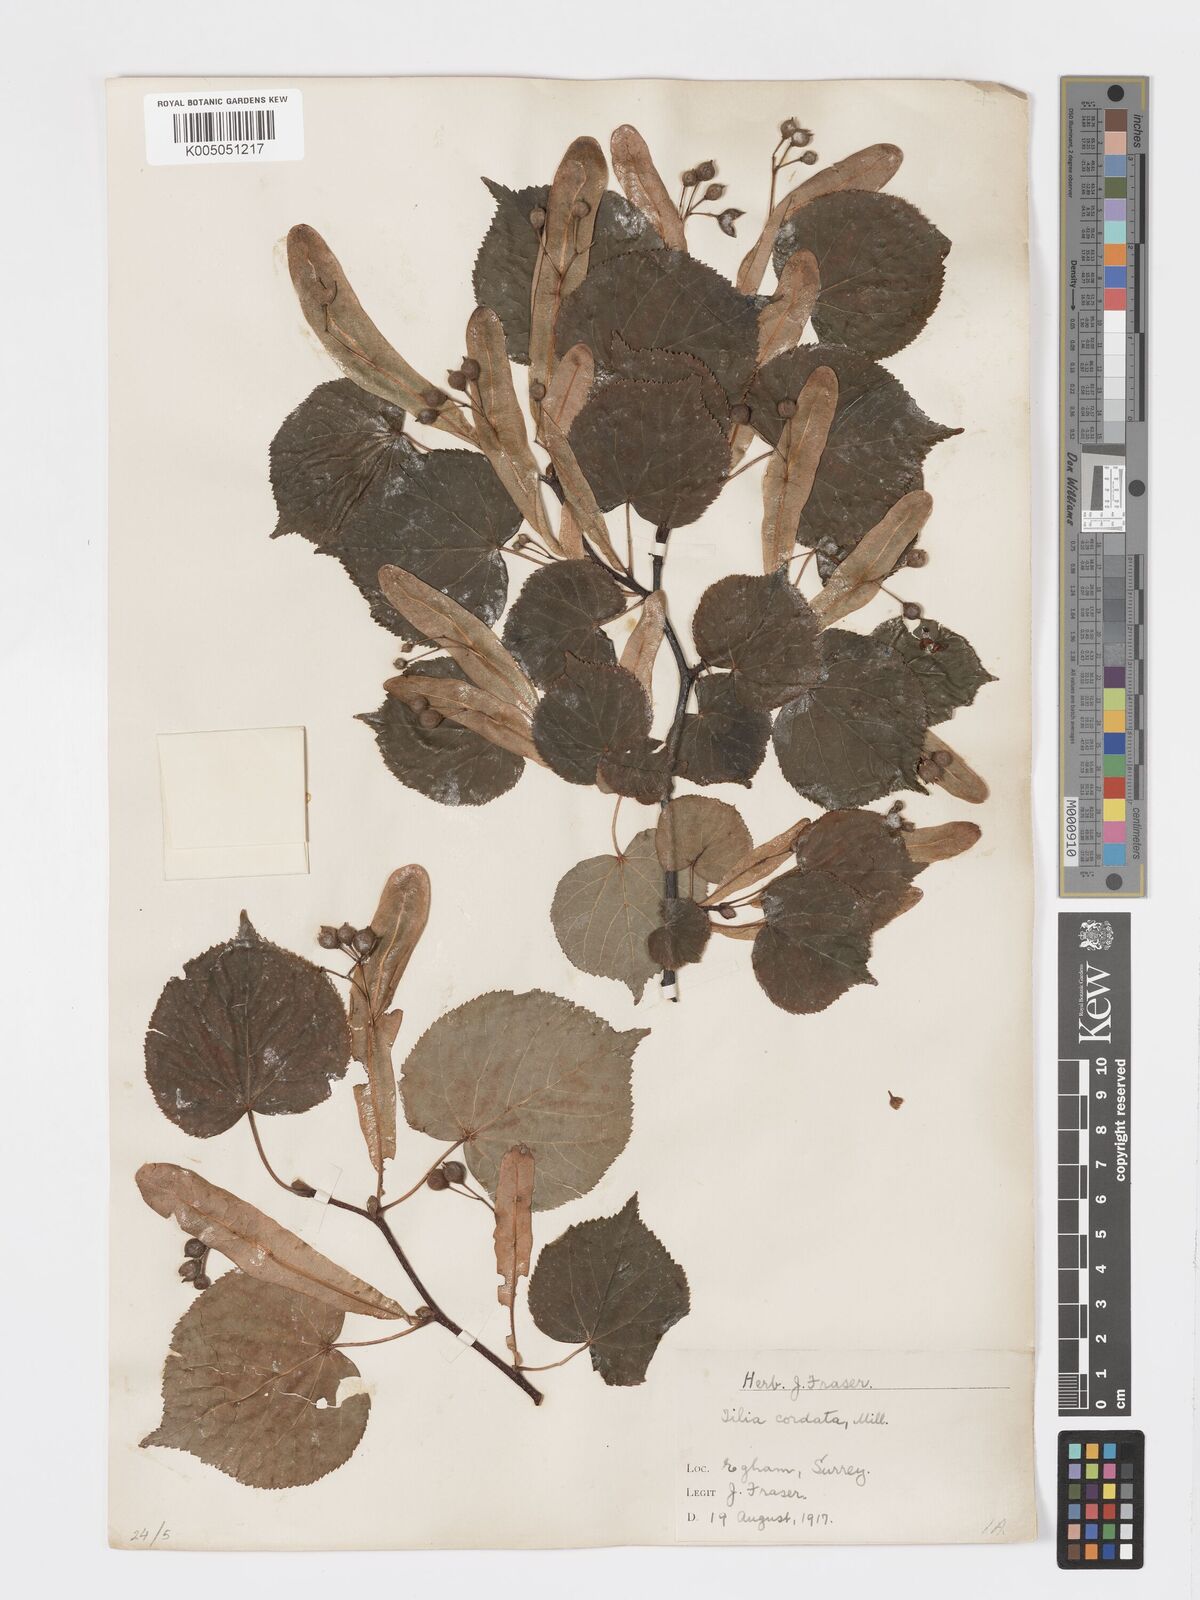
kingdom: Plantae
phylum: Tracheophyta
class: Magnoliopsida
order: Malvales
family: Malvaceae
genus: Tilia
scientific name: Tilia cordata
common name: Small-leaved lime
